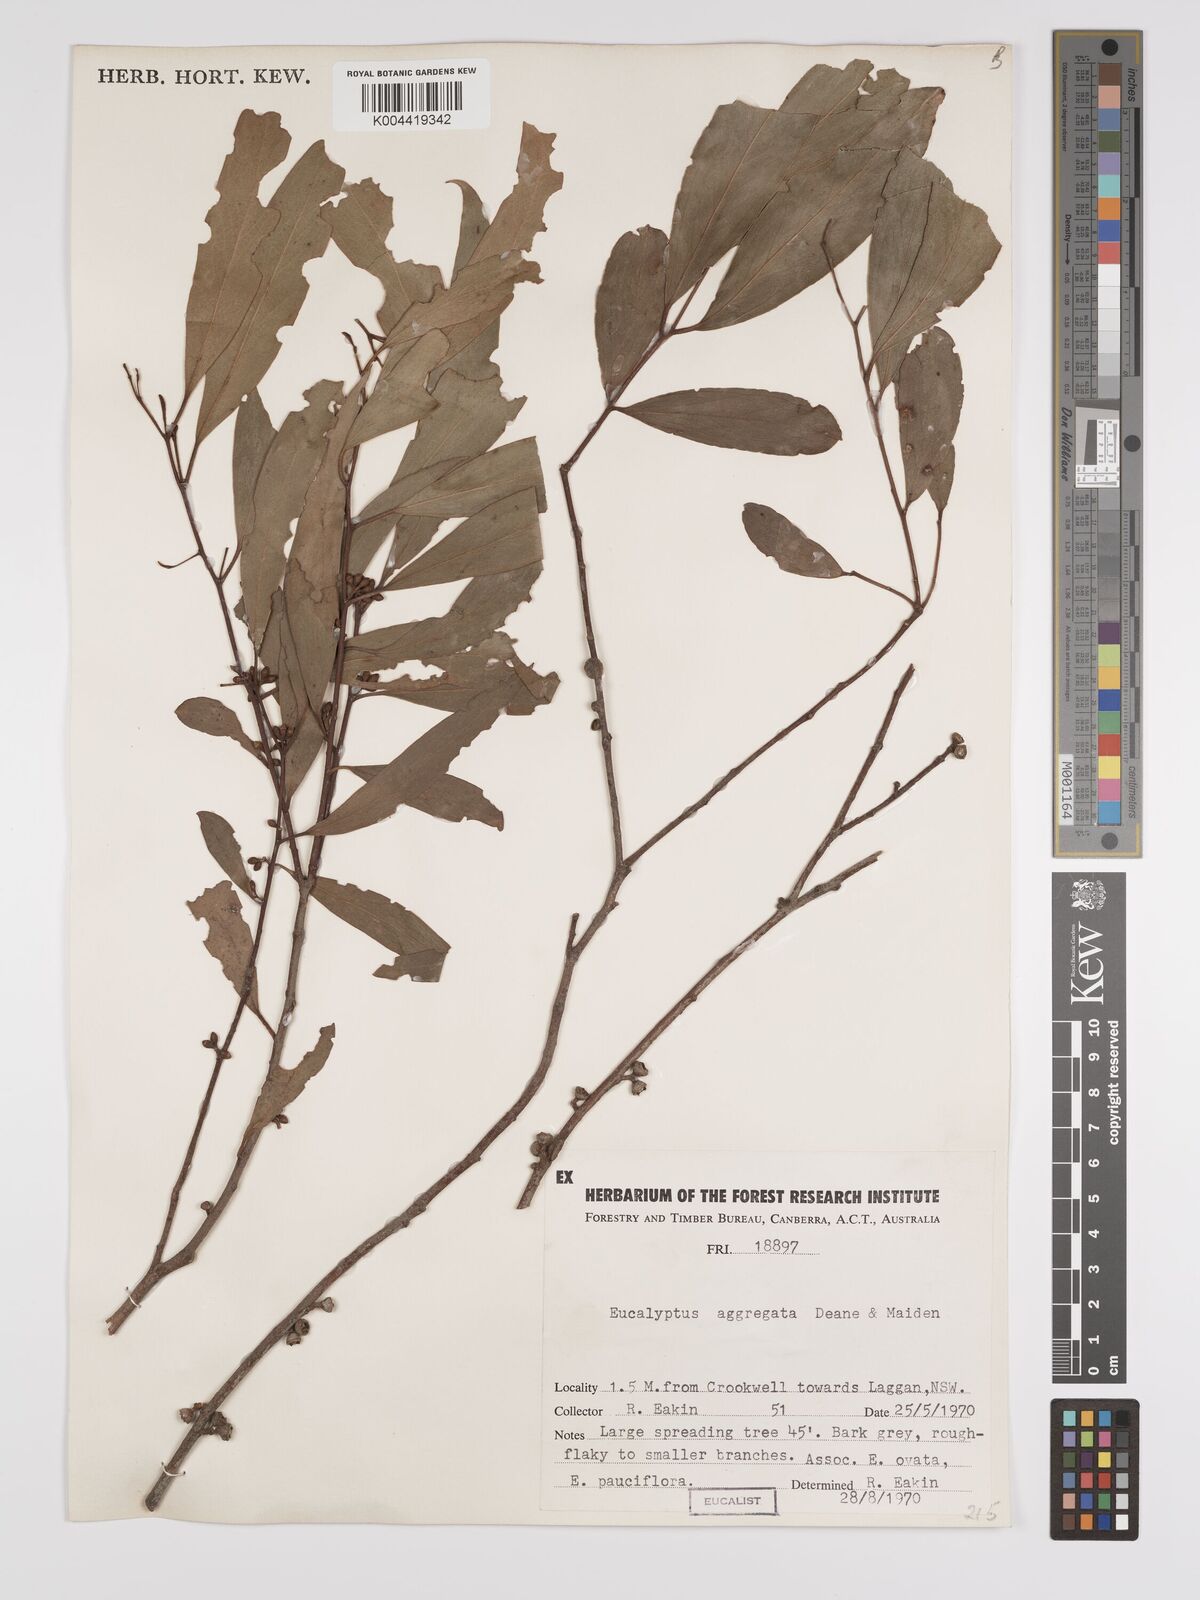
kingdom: Plantae
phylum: Tracheophyta
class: Magnoliopsida
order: Myrtales
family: Myrtaceae
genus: Eucalyptus
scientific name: Eucalyptus aggregata
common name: Black gum
